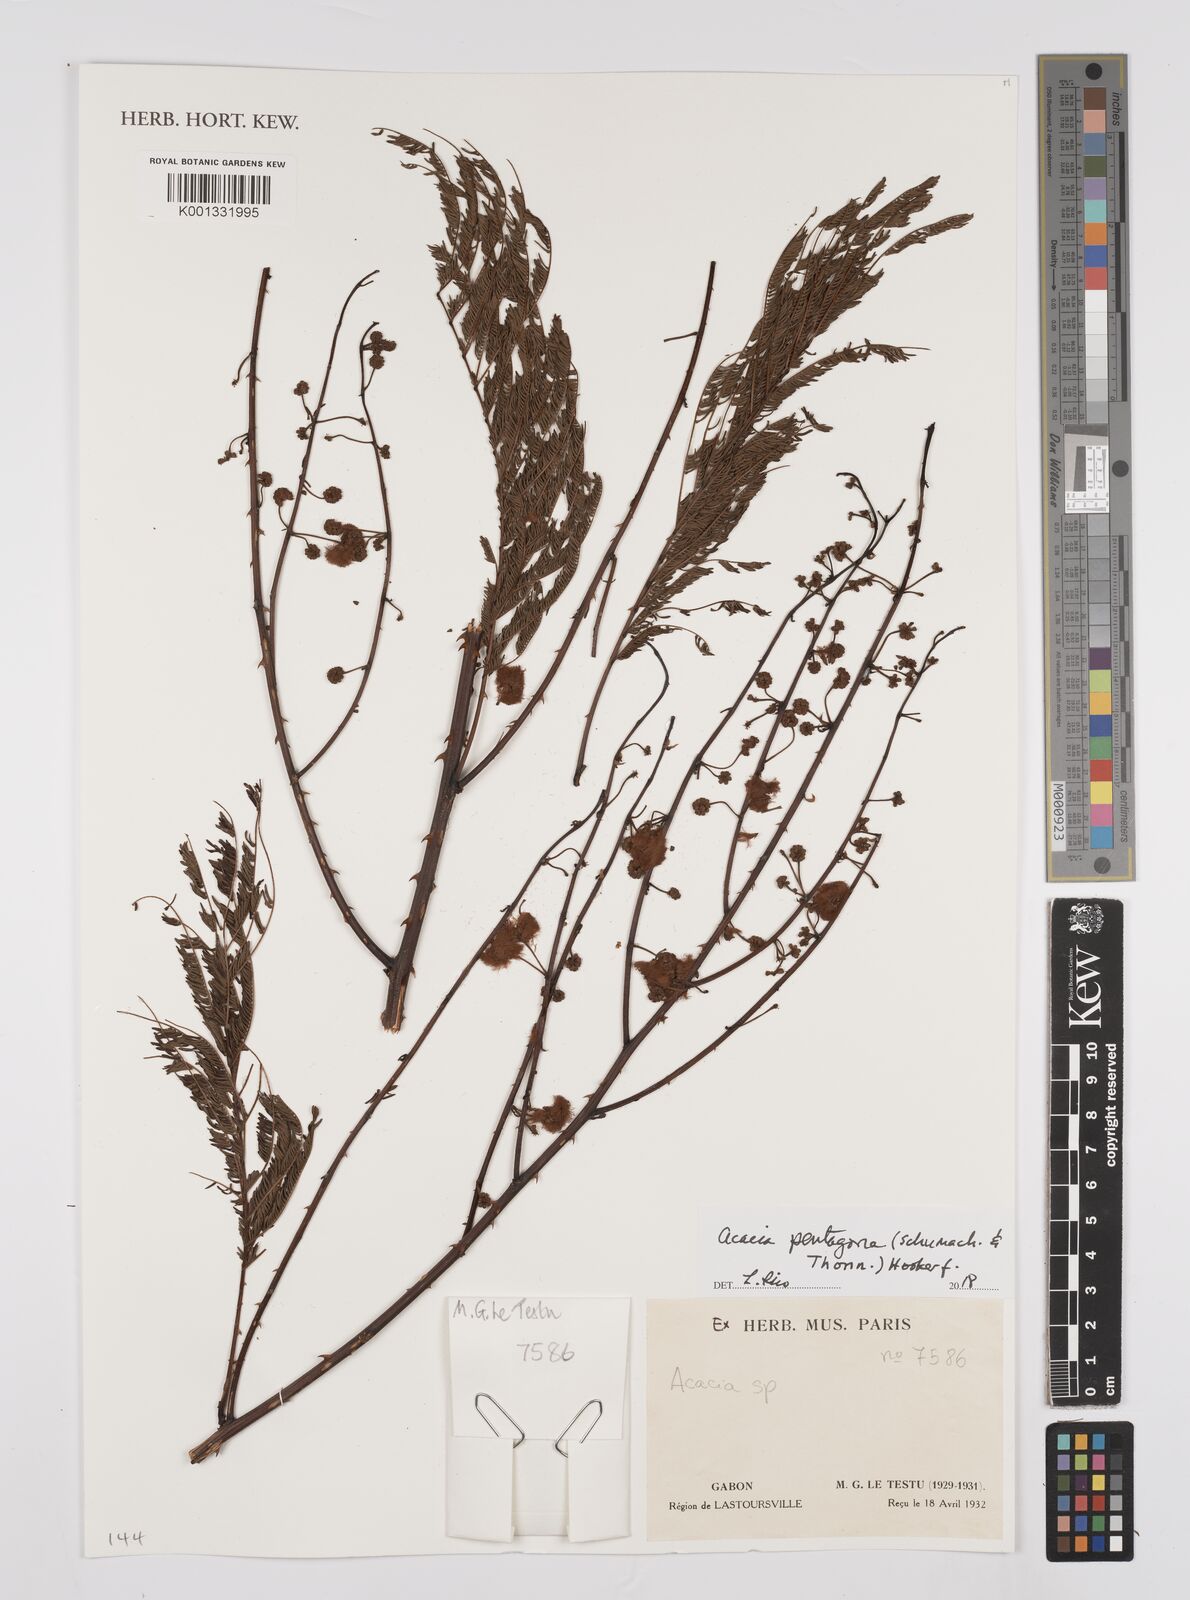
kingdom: Plantae
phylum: Tracheophyta
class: Magnoliopsida
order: Fabales
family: Fabaceae
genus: Senegalia
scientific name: Senegalia pentagona
